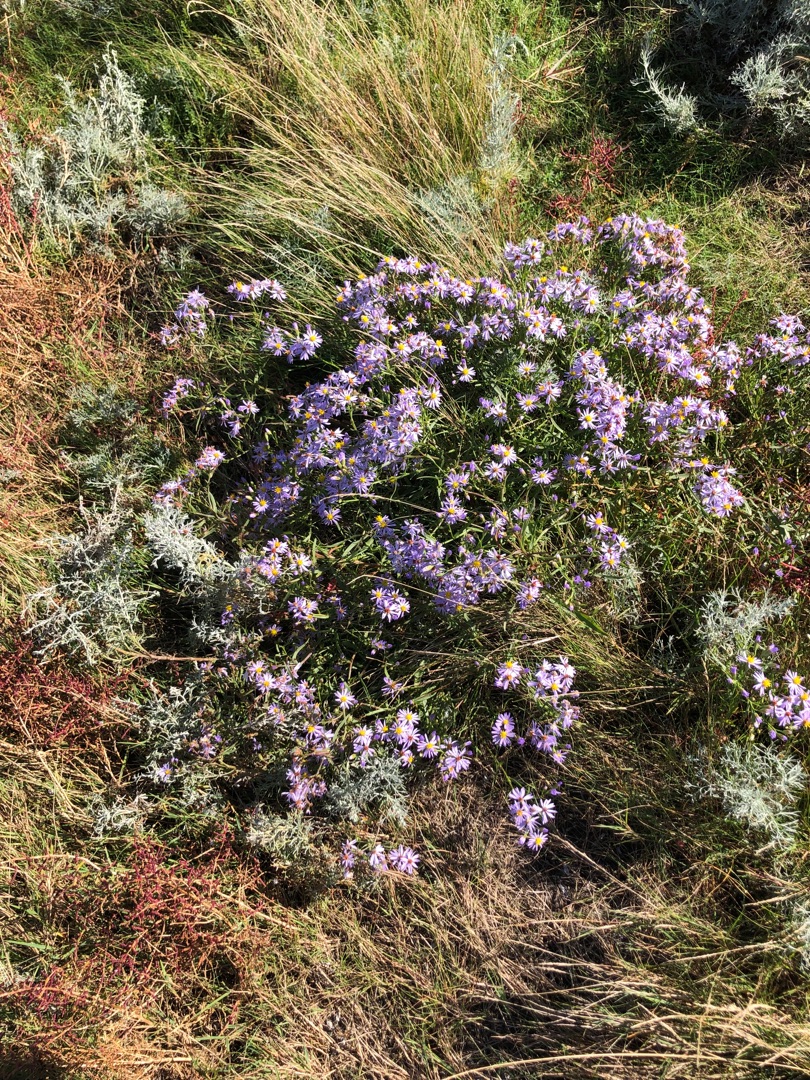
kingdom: Plantae
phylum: Tracheophyta
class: Magnoliopsida
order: Asterales
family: Asteraceae
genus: Tripolium
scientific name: Tripolium pannonicum
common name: Strandasters
